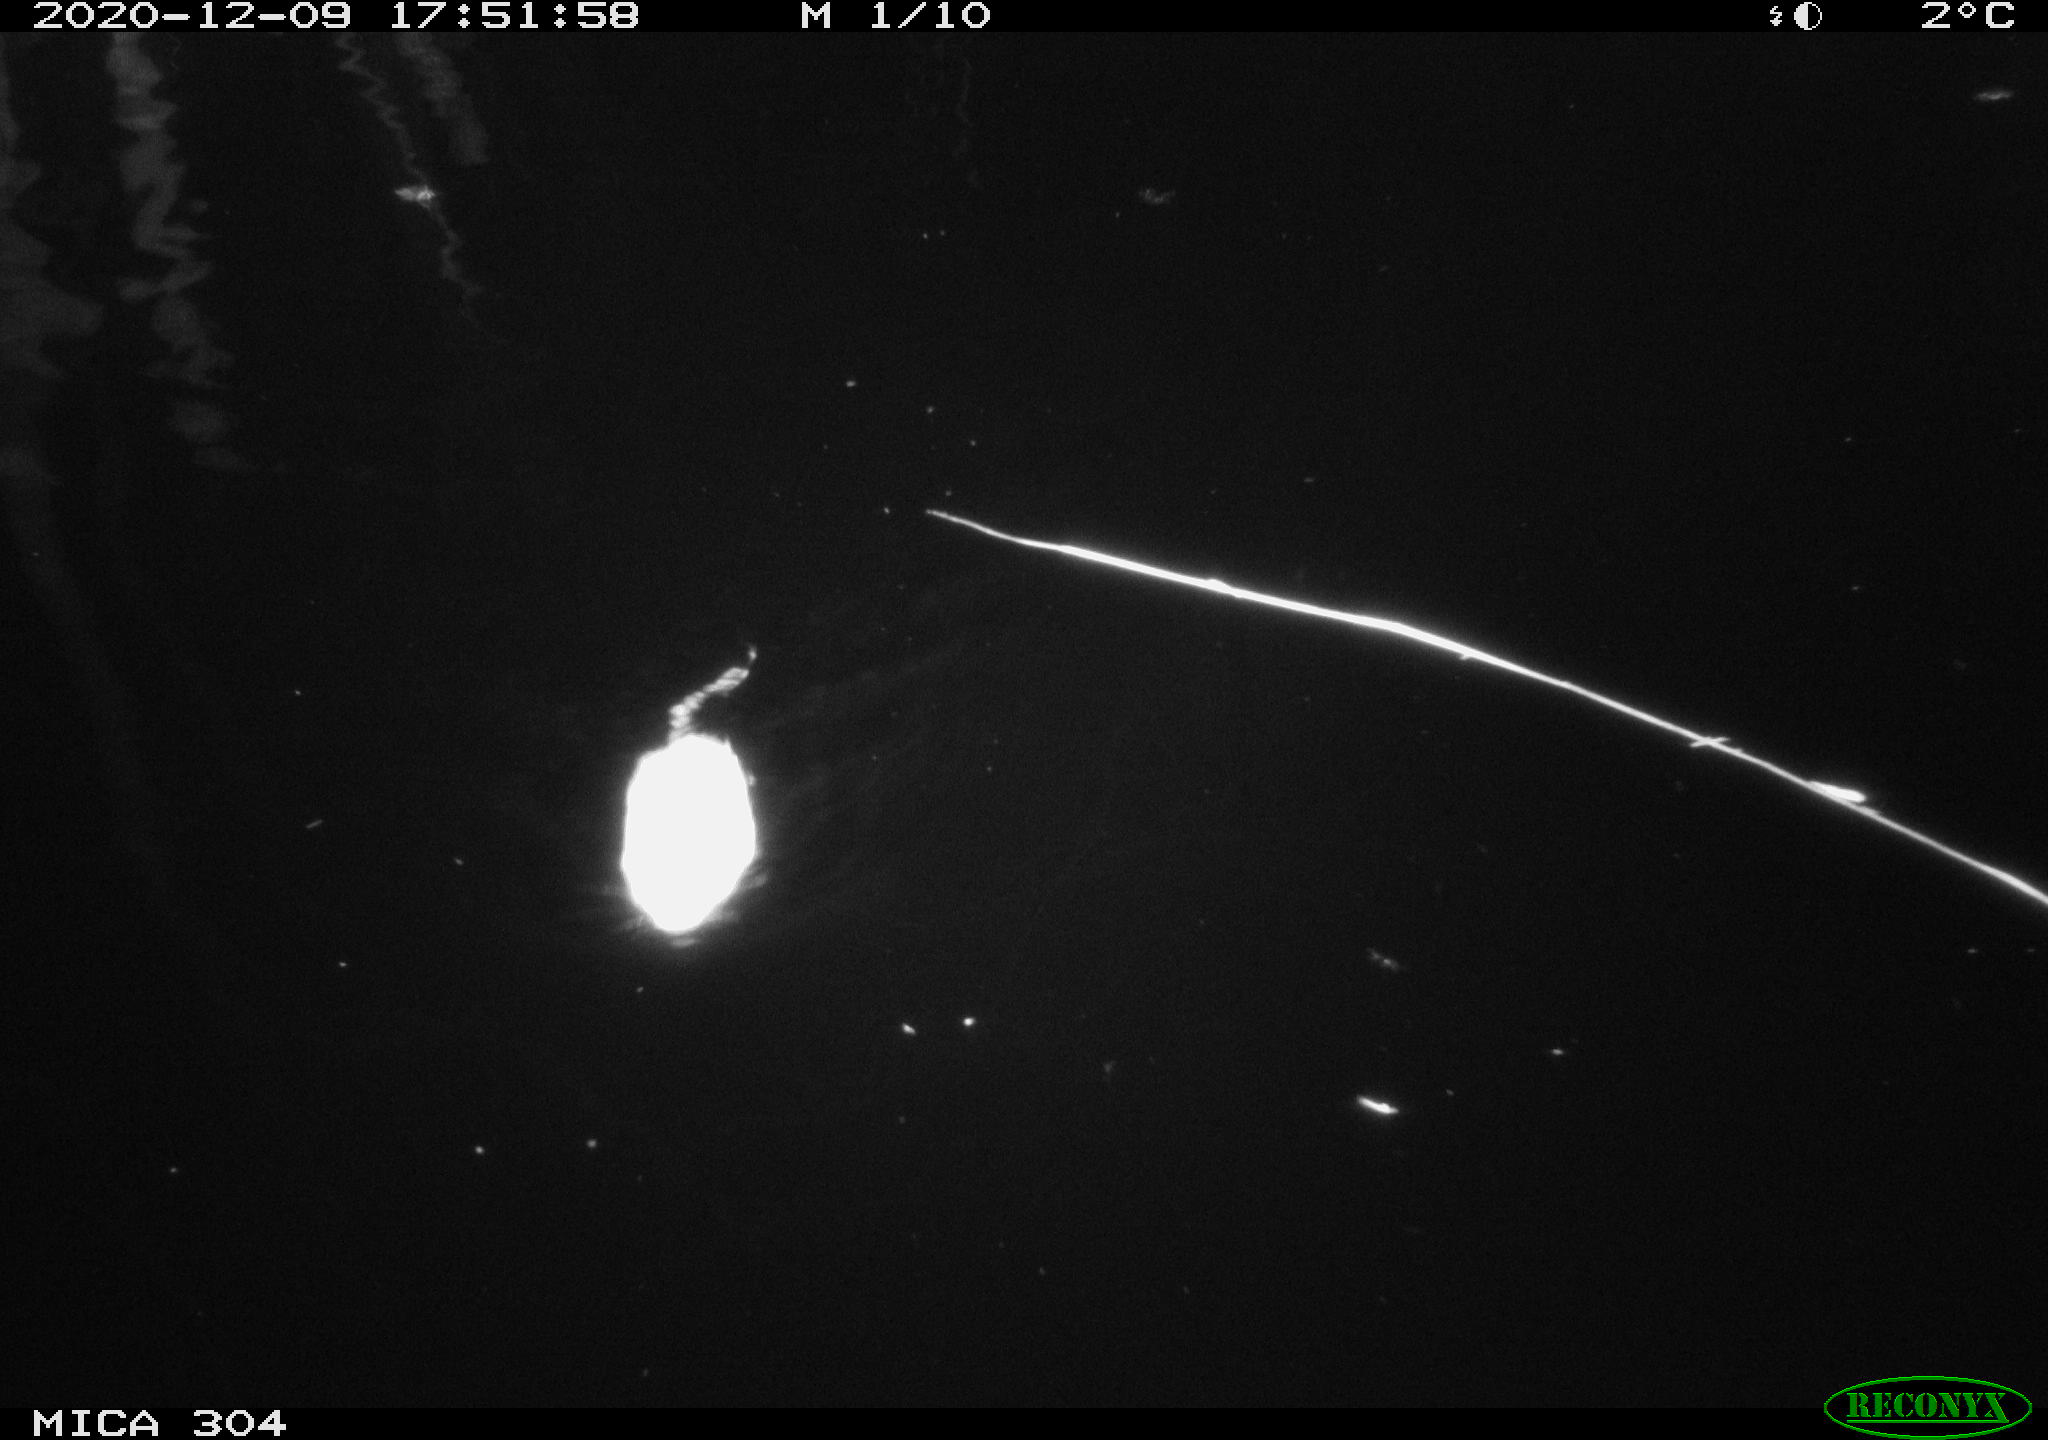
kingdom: Animalia
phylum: Chordata
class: Mammalia
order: Rodentia
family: Muridae
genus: Rattus
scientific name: Rattus norvegicus
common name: Brown rat
